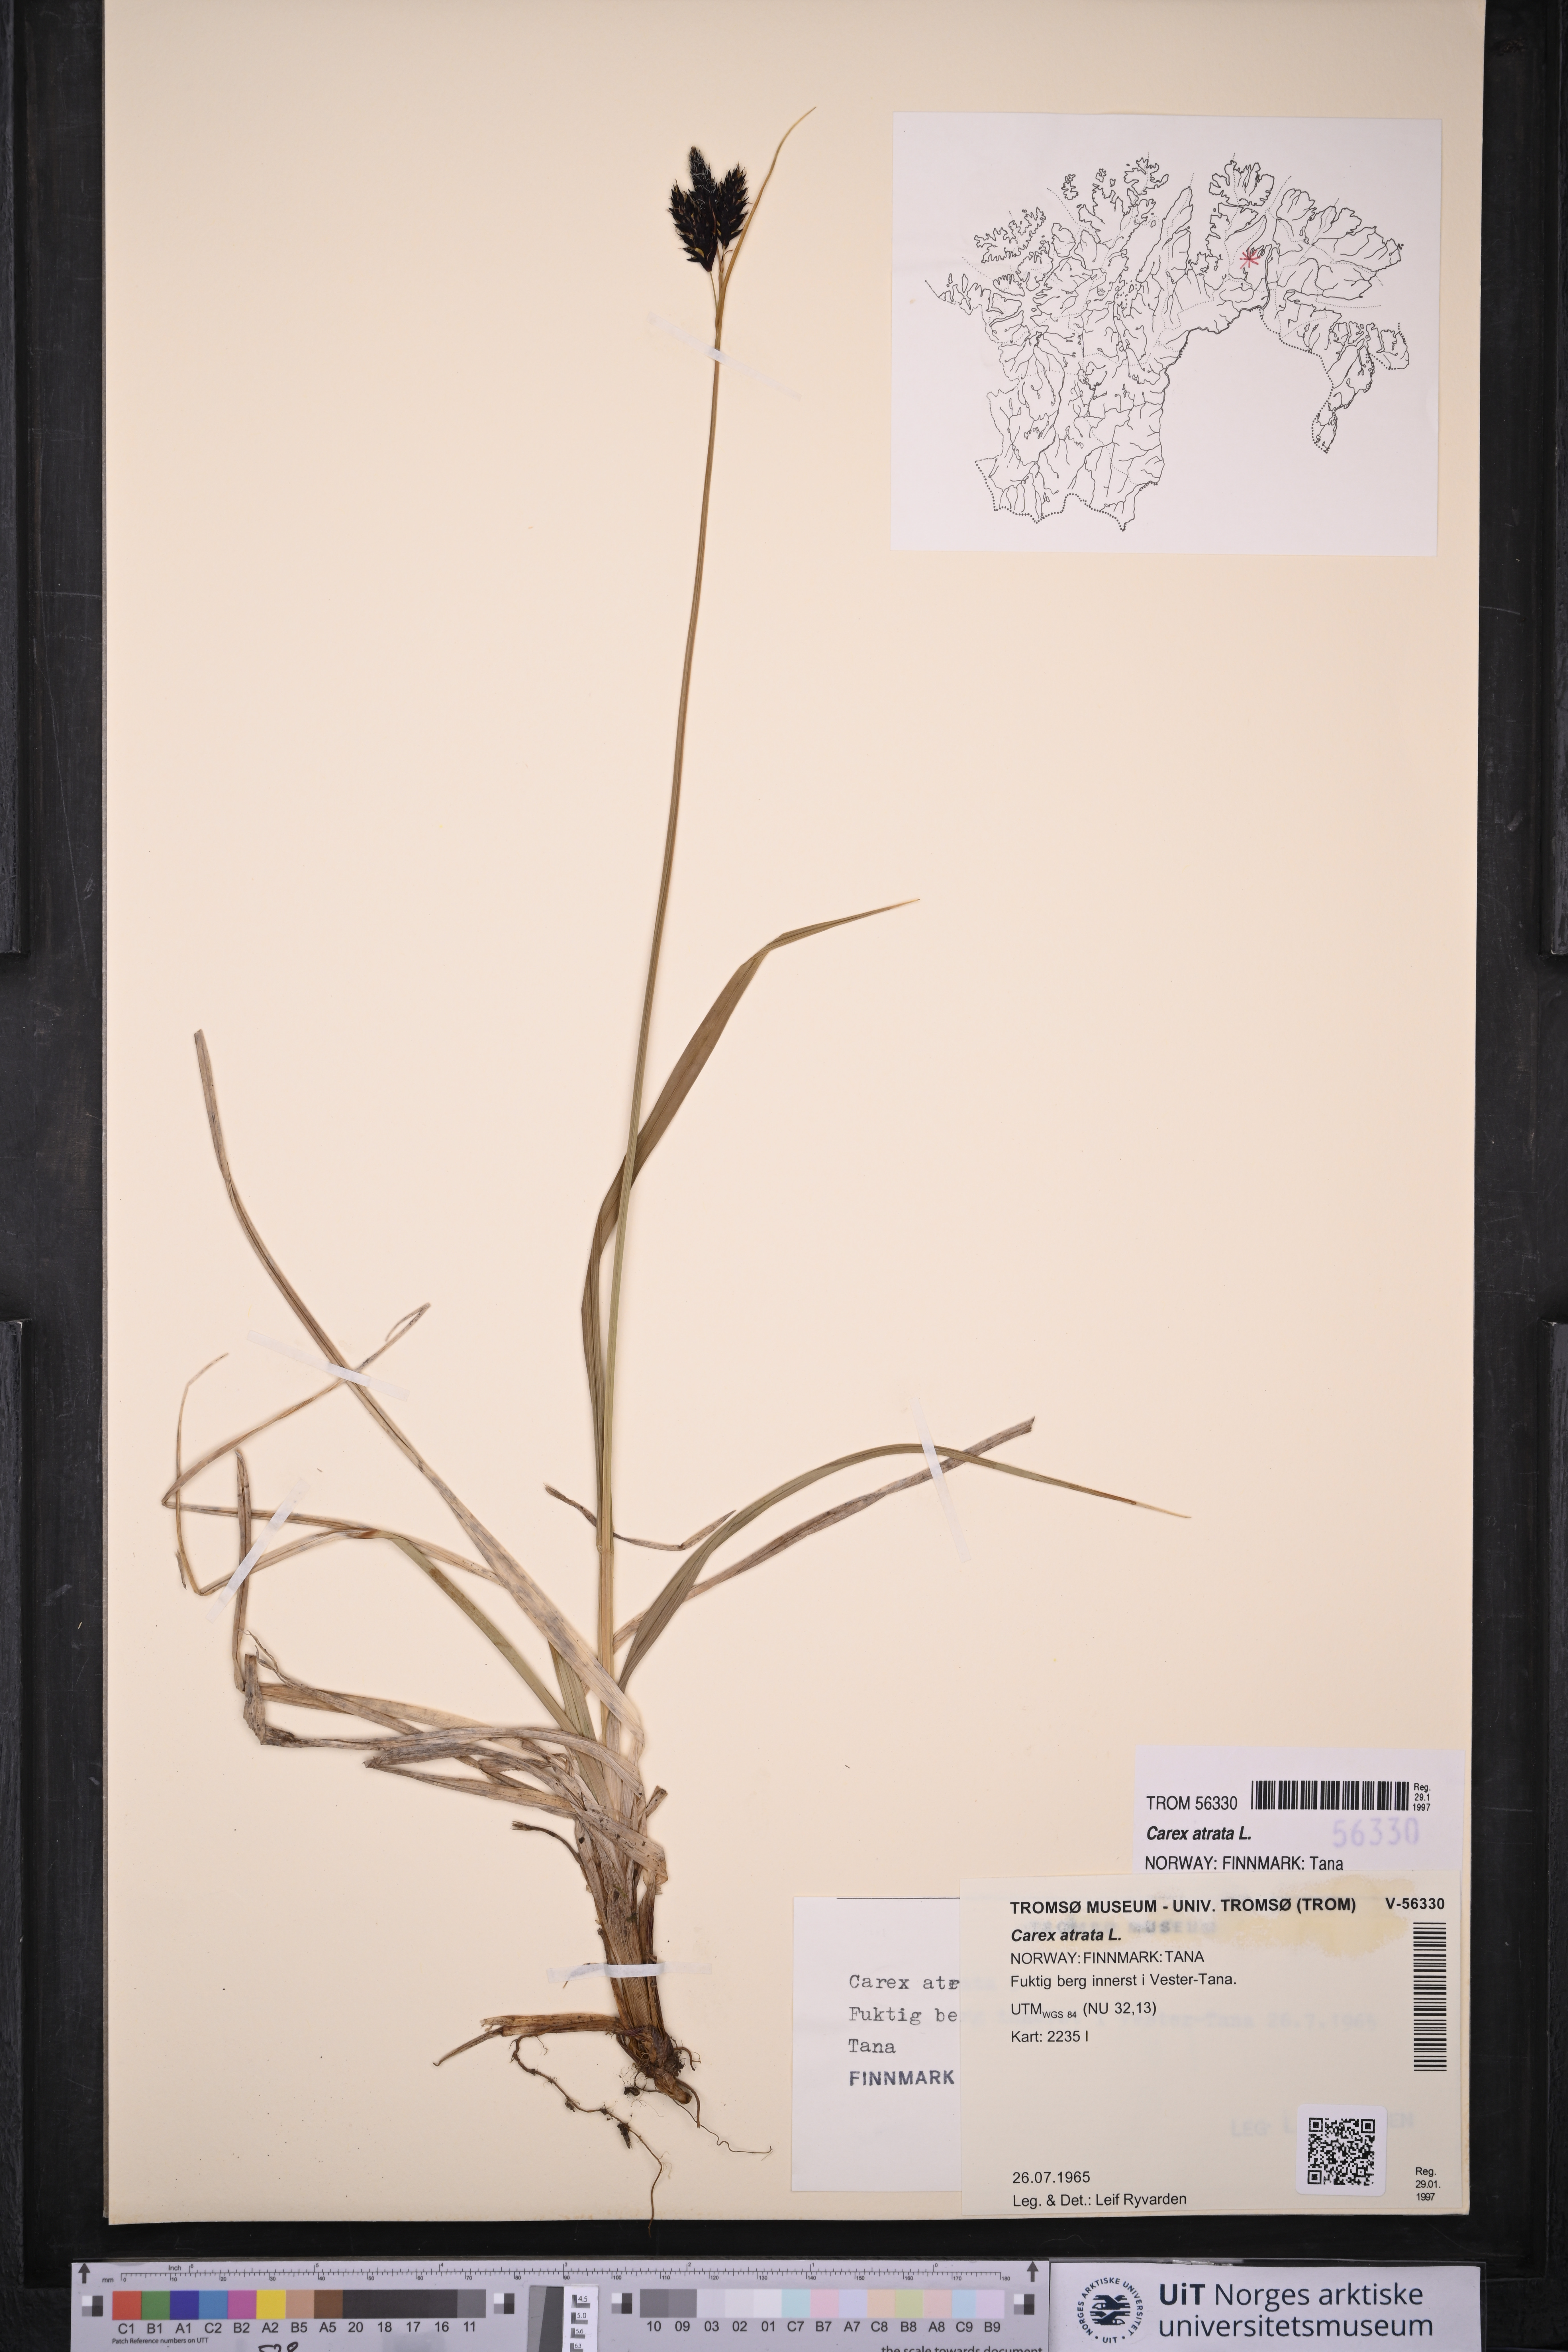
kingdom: Plantae
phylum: Tracheophyta
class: Liliopsida
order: Poales
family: Cyperaceae
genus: Carex
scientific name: Carex atrata
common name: Black alpine sedge
